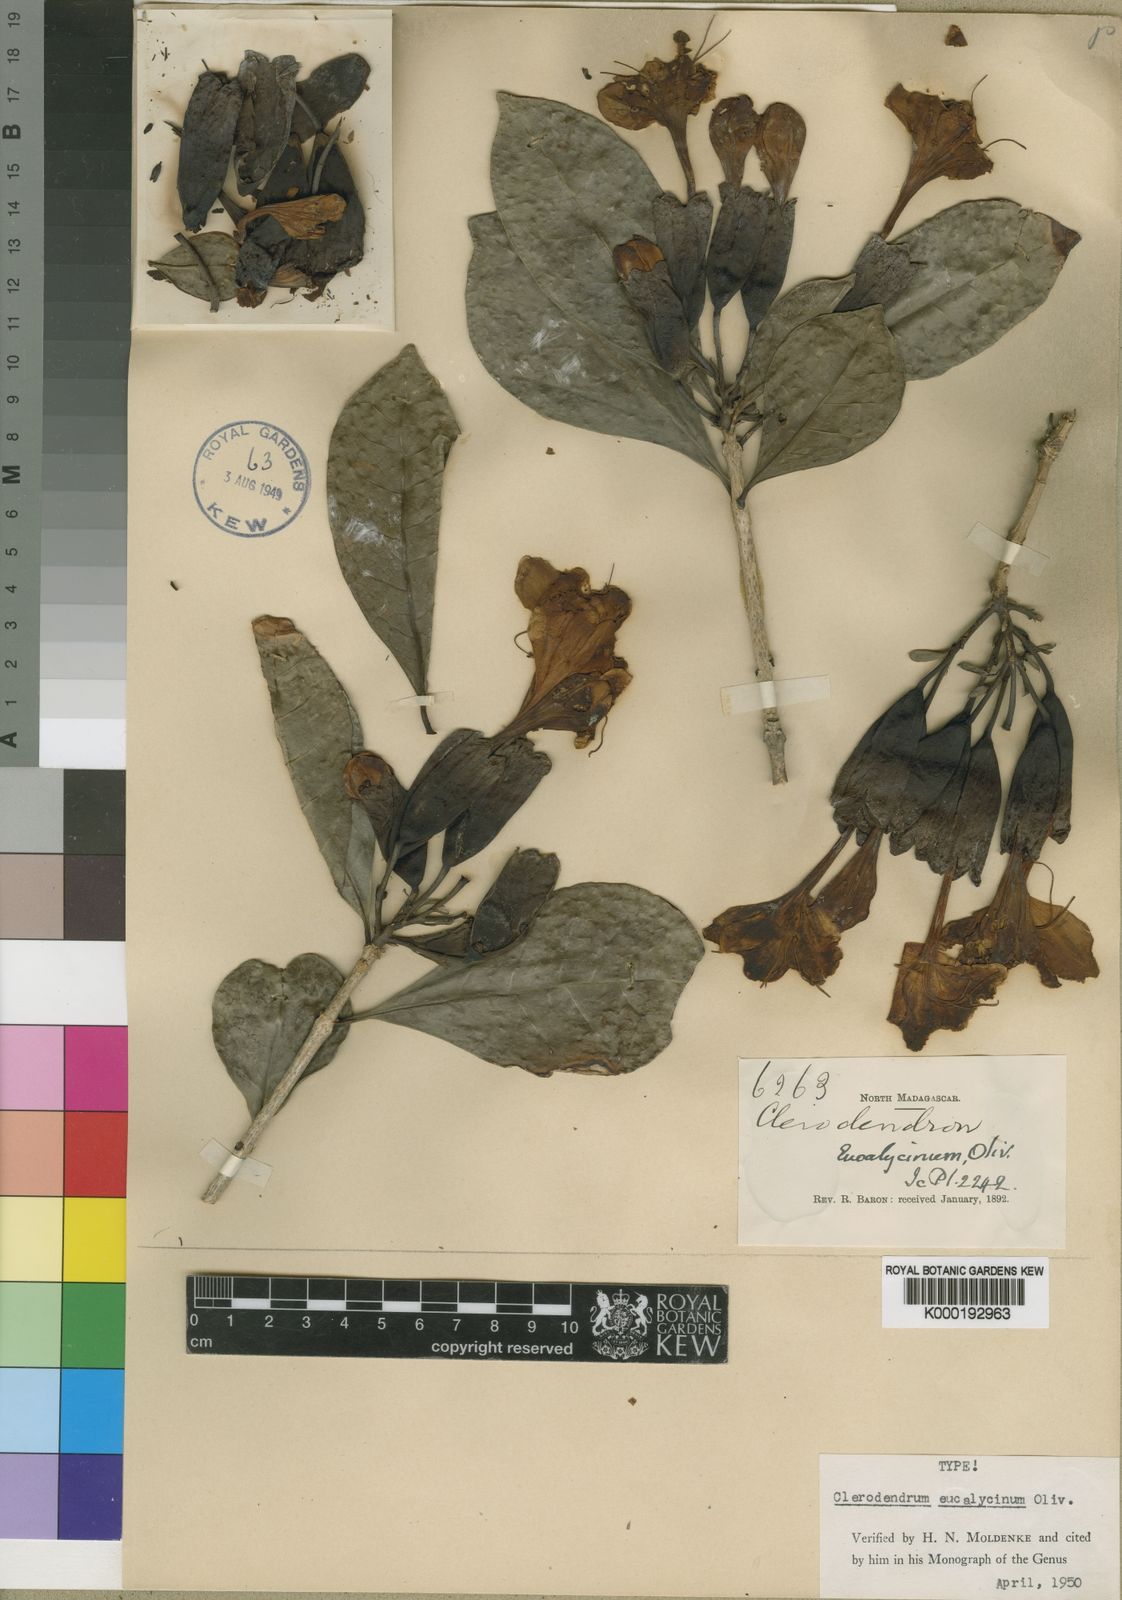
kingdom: Plantae
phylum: Tracheophyta
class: Magnoliopsida
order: Lamiales
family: Lamiaceae
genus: Clerodendrum
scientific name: Clerodendrum eucalycinum
